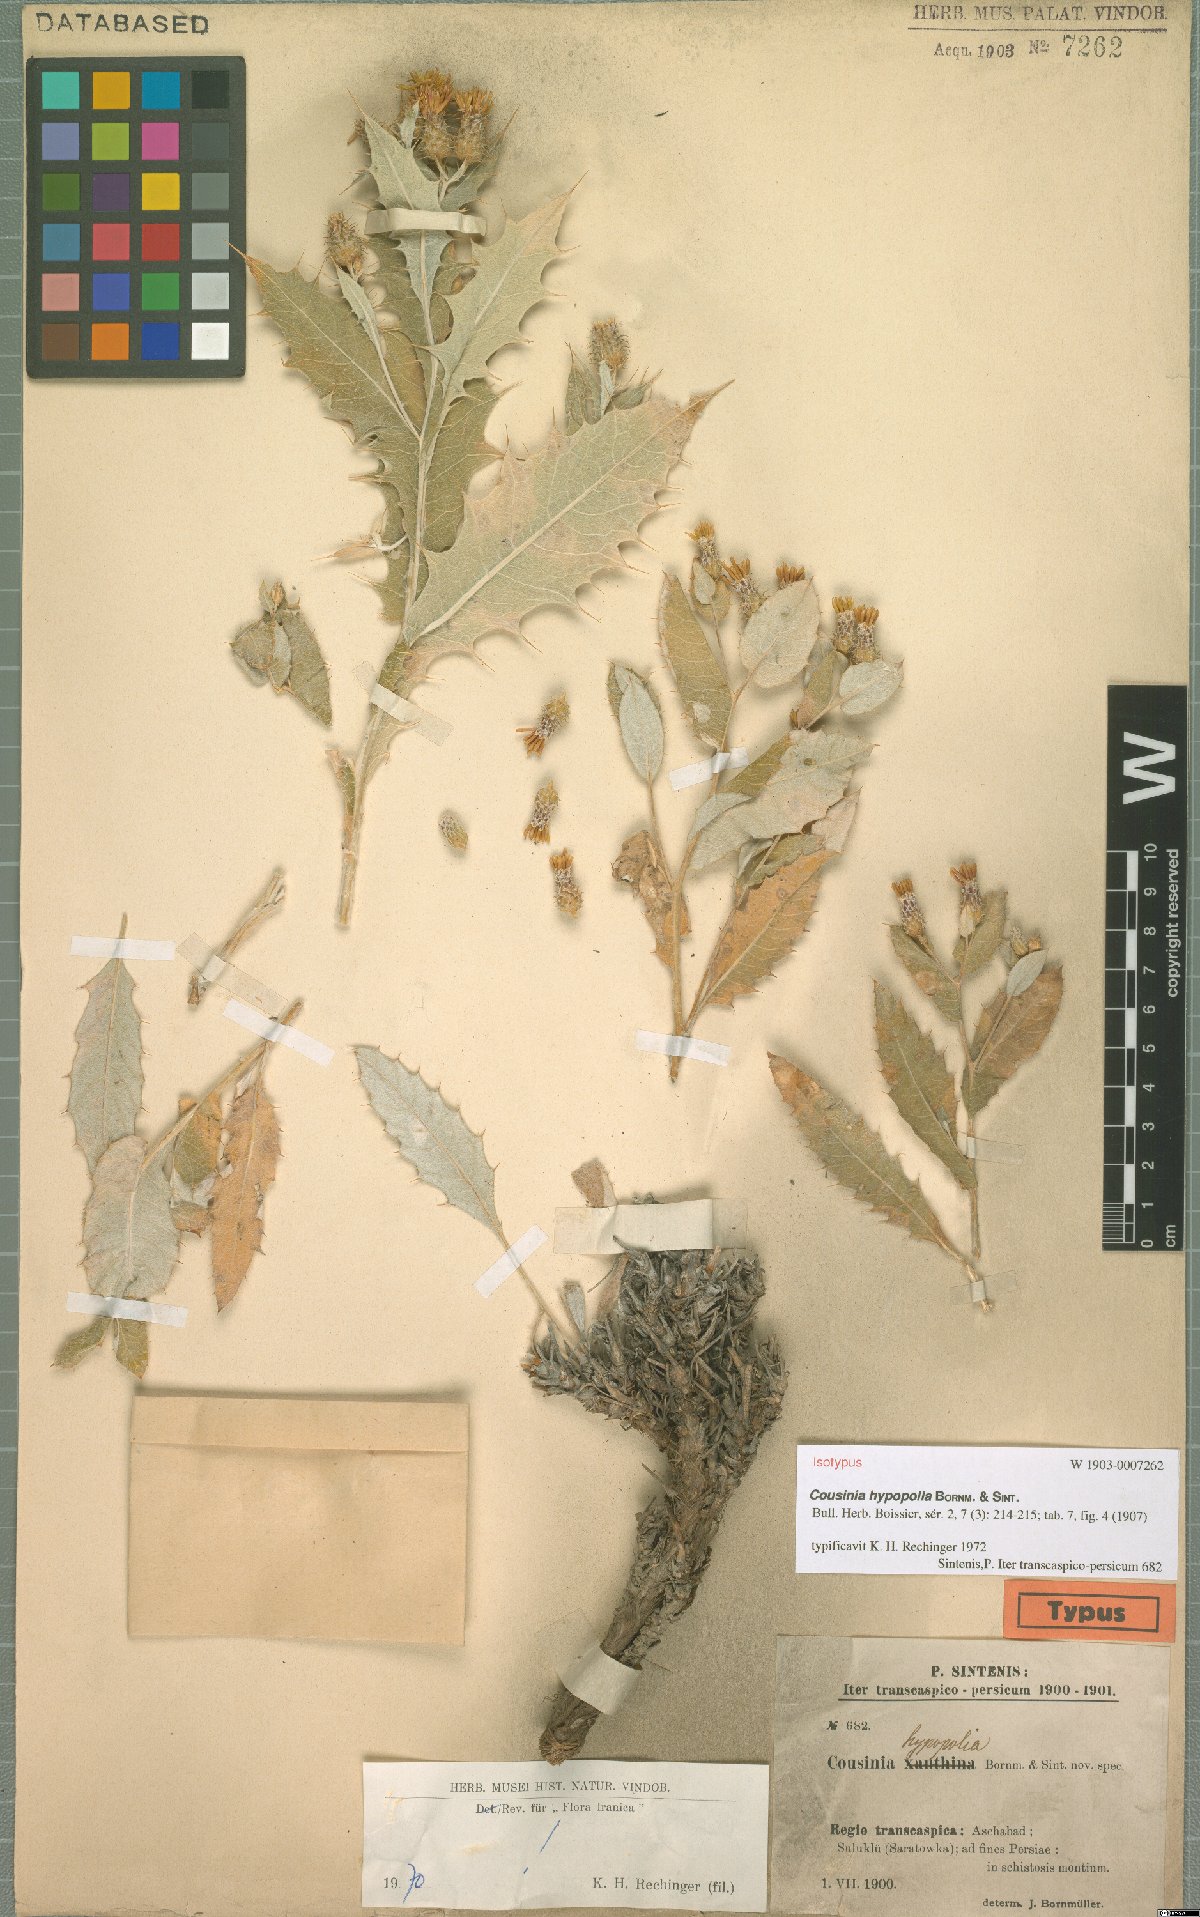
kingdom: Plantae
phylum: Tracheophyta
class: Magnoliopsida
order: Asterales
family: Asteraceae
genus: Cousinia
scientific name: Cousinia hypopolia
